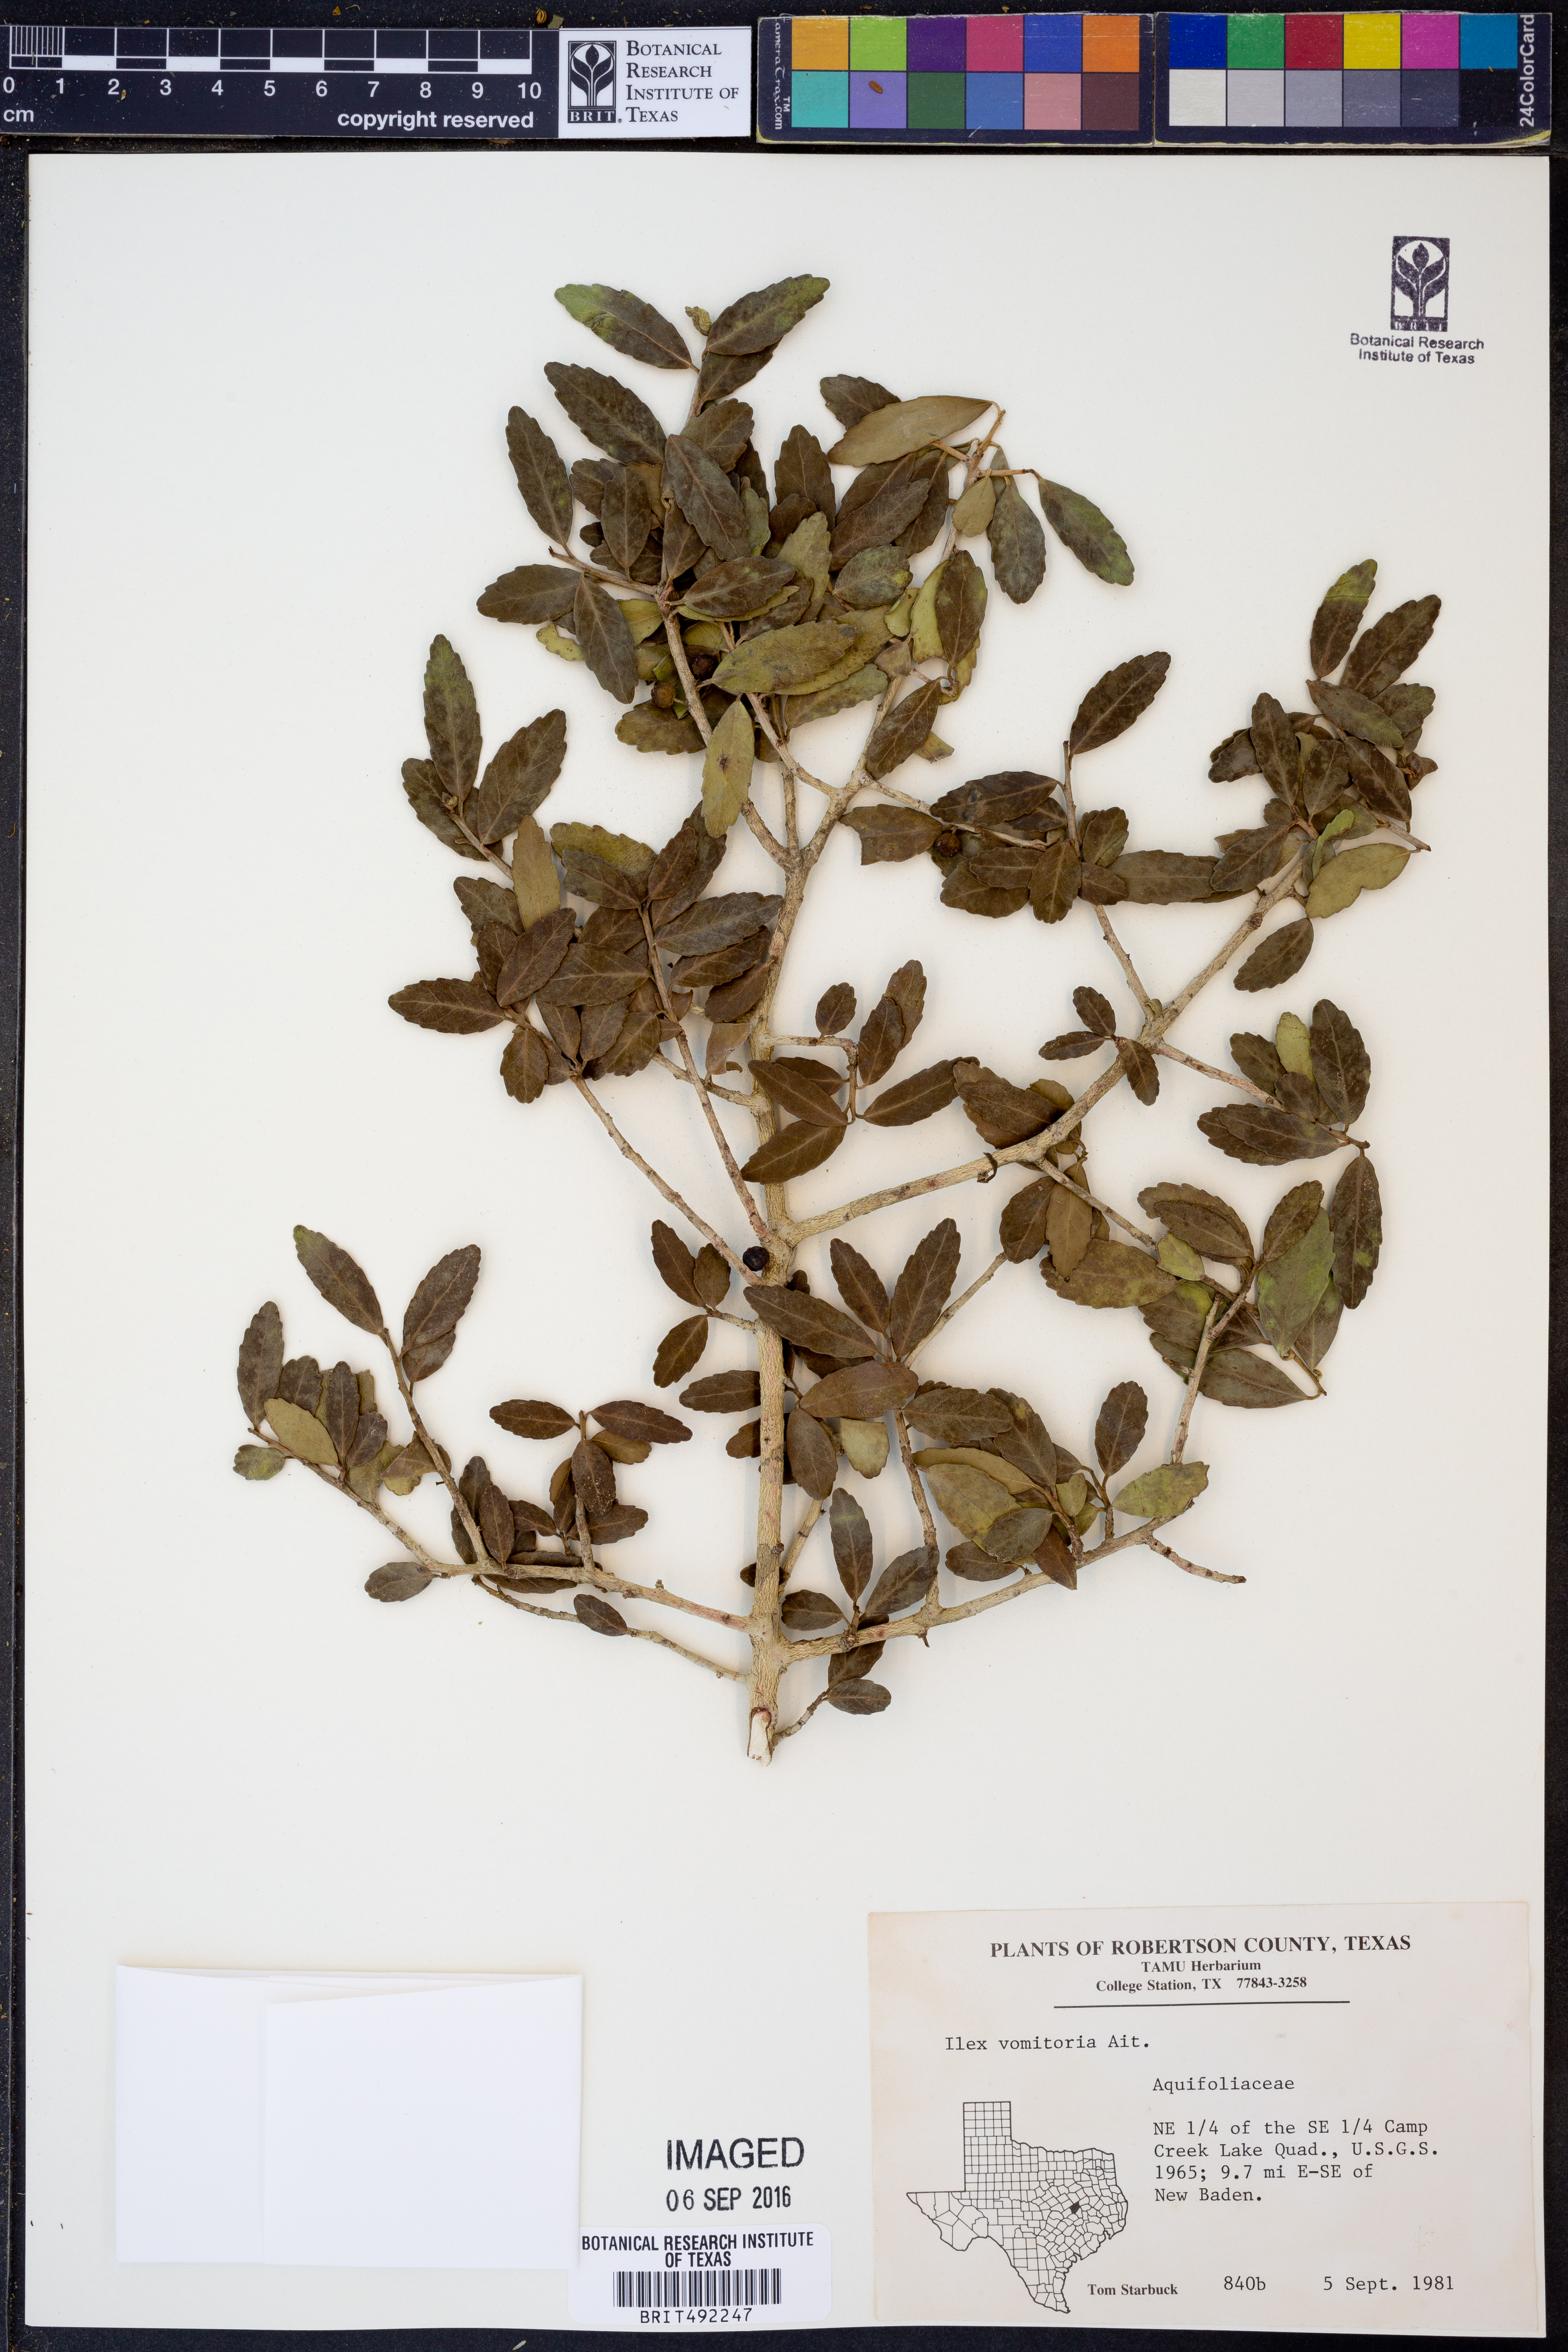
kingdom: Plantae
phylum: Tracheophyta
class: Magnoliopsida
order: Aquifoliales
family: Aquifoliaceae
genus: Ilex
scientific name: Ilex vomitoria
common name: Yaupon holly
